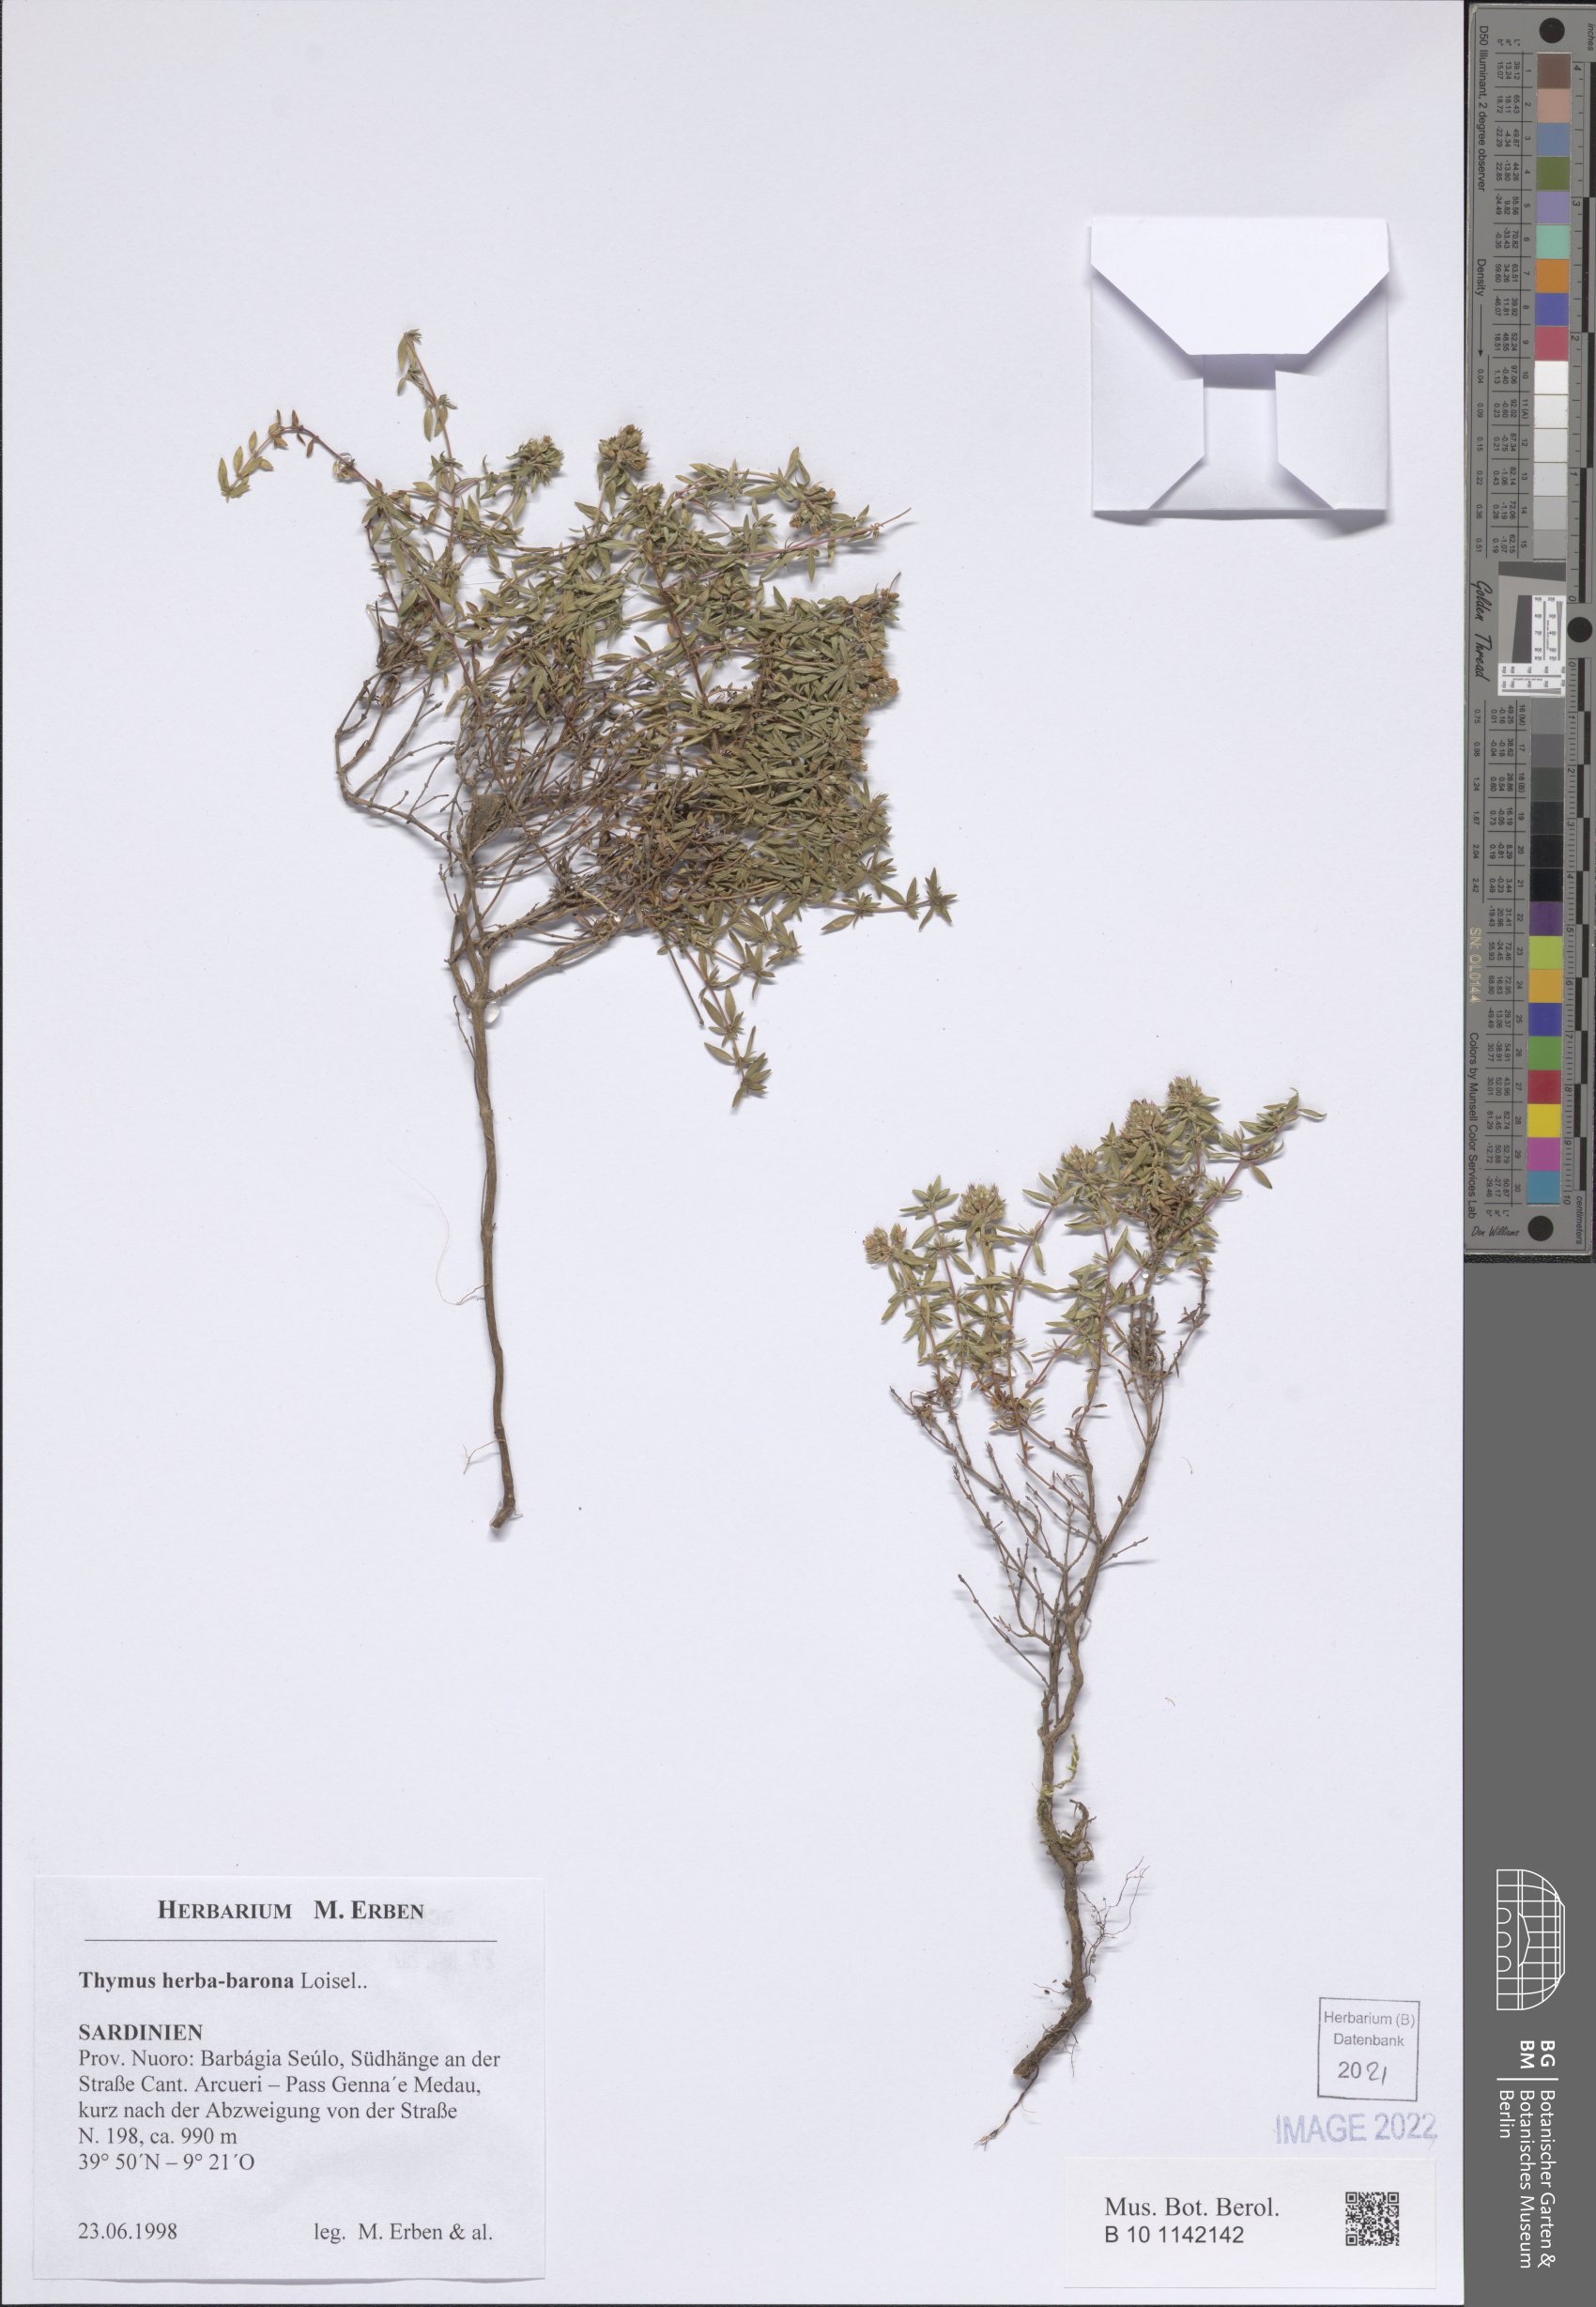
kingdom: Plantae
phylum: Tracheophyta
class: Magnoliopsida
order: Lamiales
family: Lamiaceae
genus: Thymus
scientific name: Thymus herba-barona
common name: Caraway thyme
